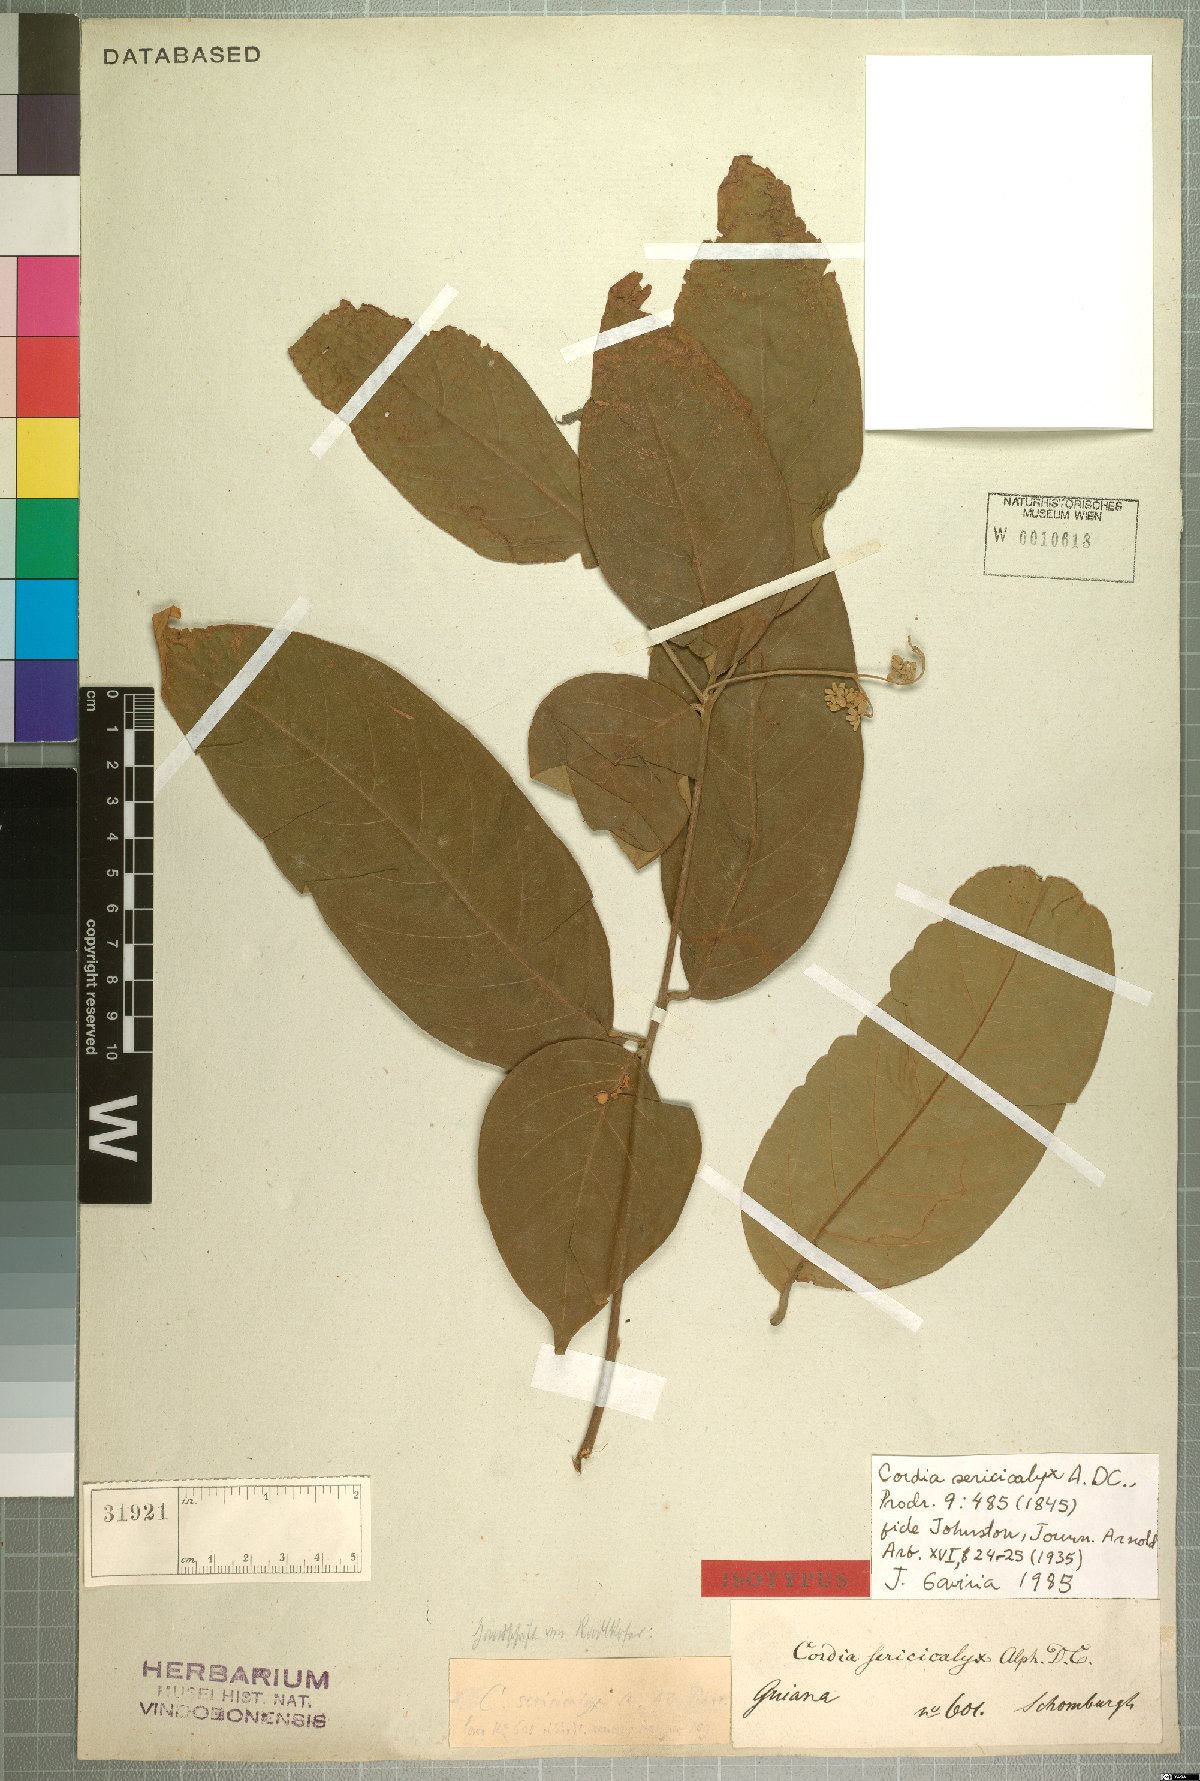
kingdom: Plantae
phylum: Tracheophyta
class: Magnoliopsida
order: Boraginales
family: Cordiaceae
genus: Cordia
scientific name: Cordia sericicalyx
